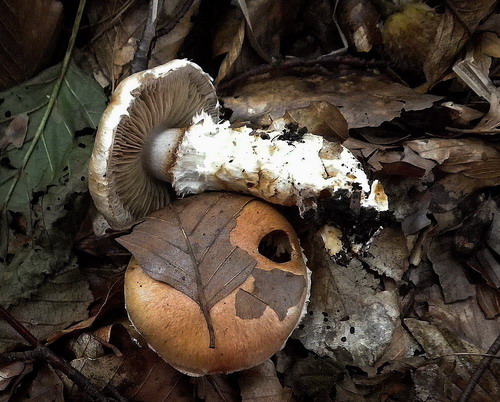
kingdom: Fungi
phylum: Basidiomycota
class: Agaricomycetes
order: Agaricales
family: Cortinariaceae
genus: Phlegmacium
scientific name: Phlegmacium vulpinum
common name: ringbæltet slørhat
